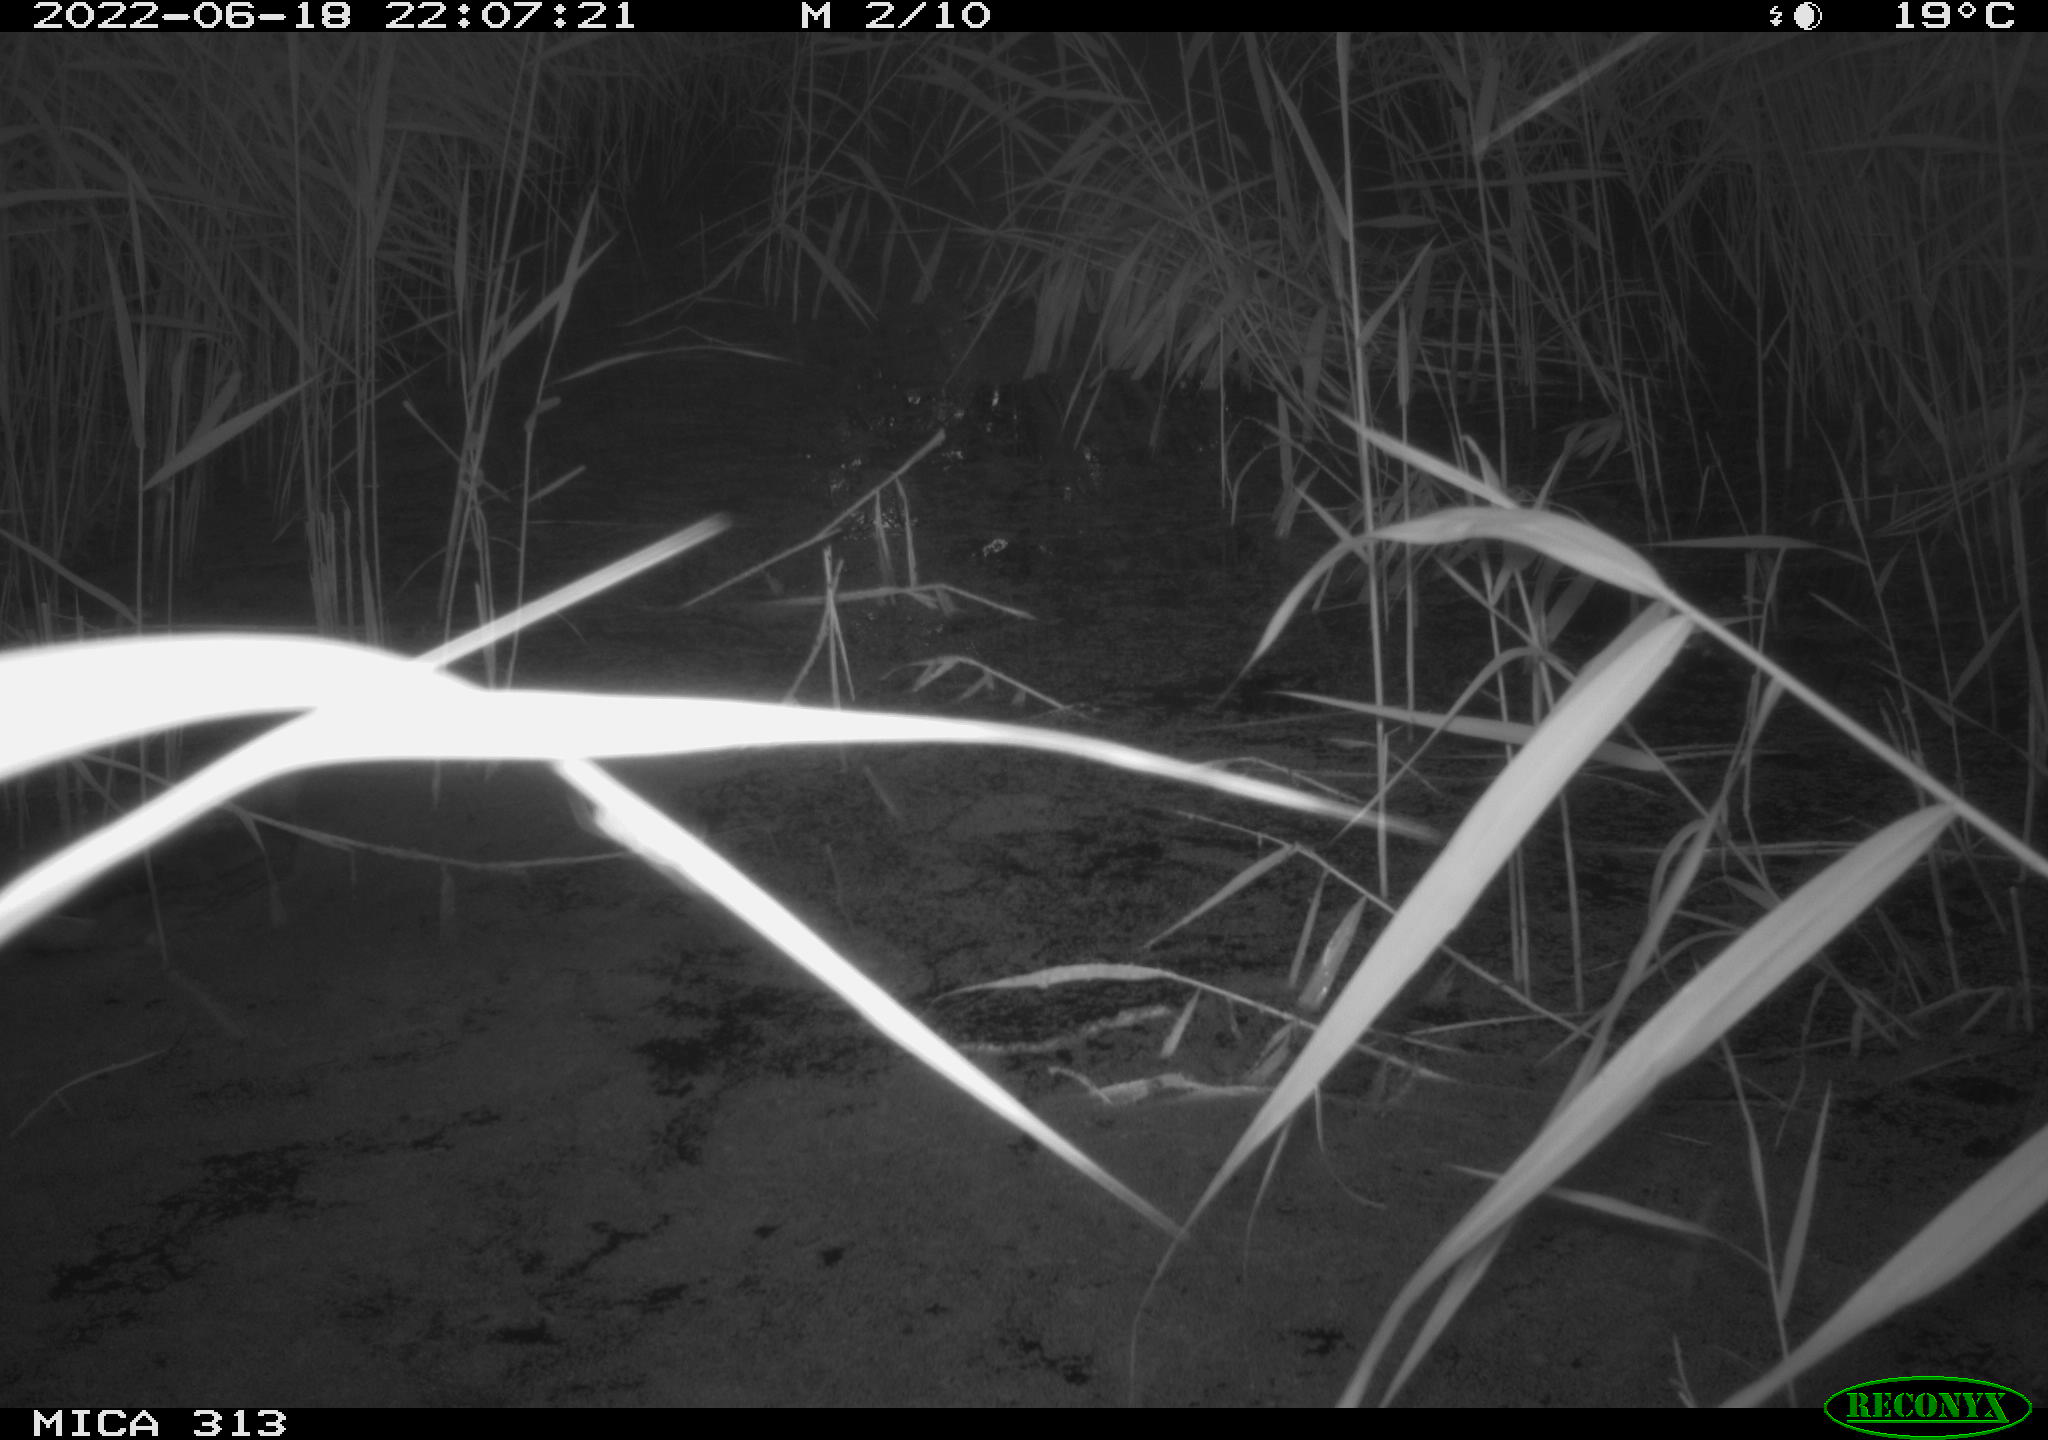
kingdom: Animalia
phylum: Chordata
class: Aves
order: Anseriformes
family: Anatidae
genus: Anas
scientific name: Anas platyrhynchos
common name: Mallard
